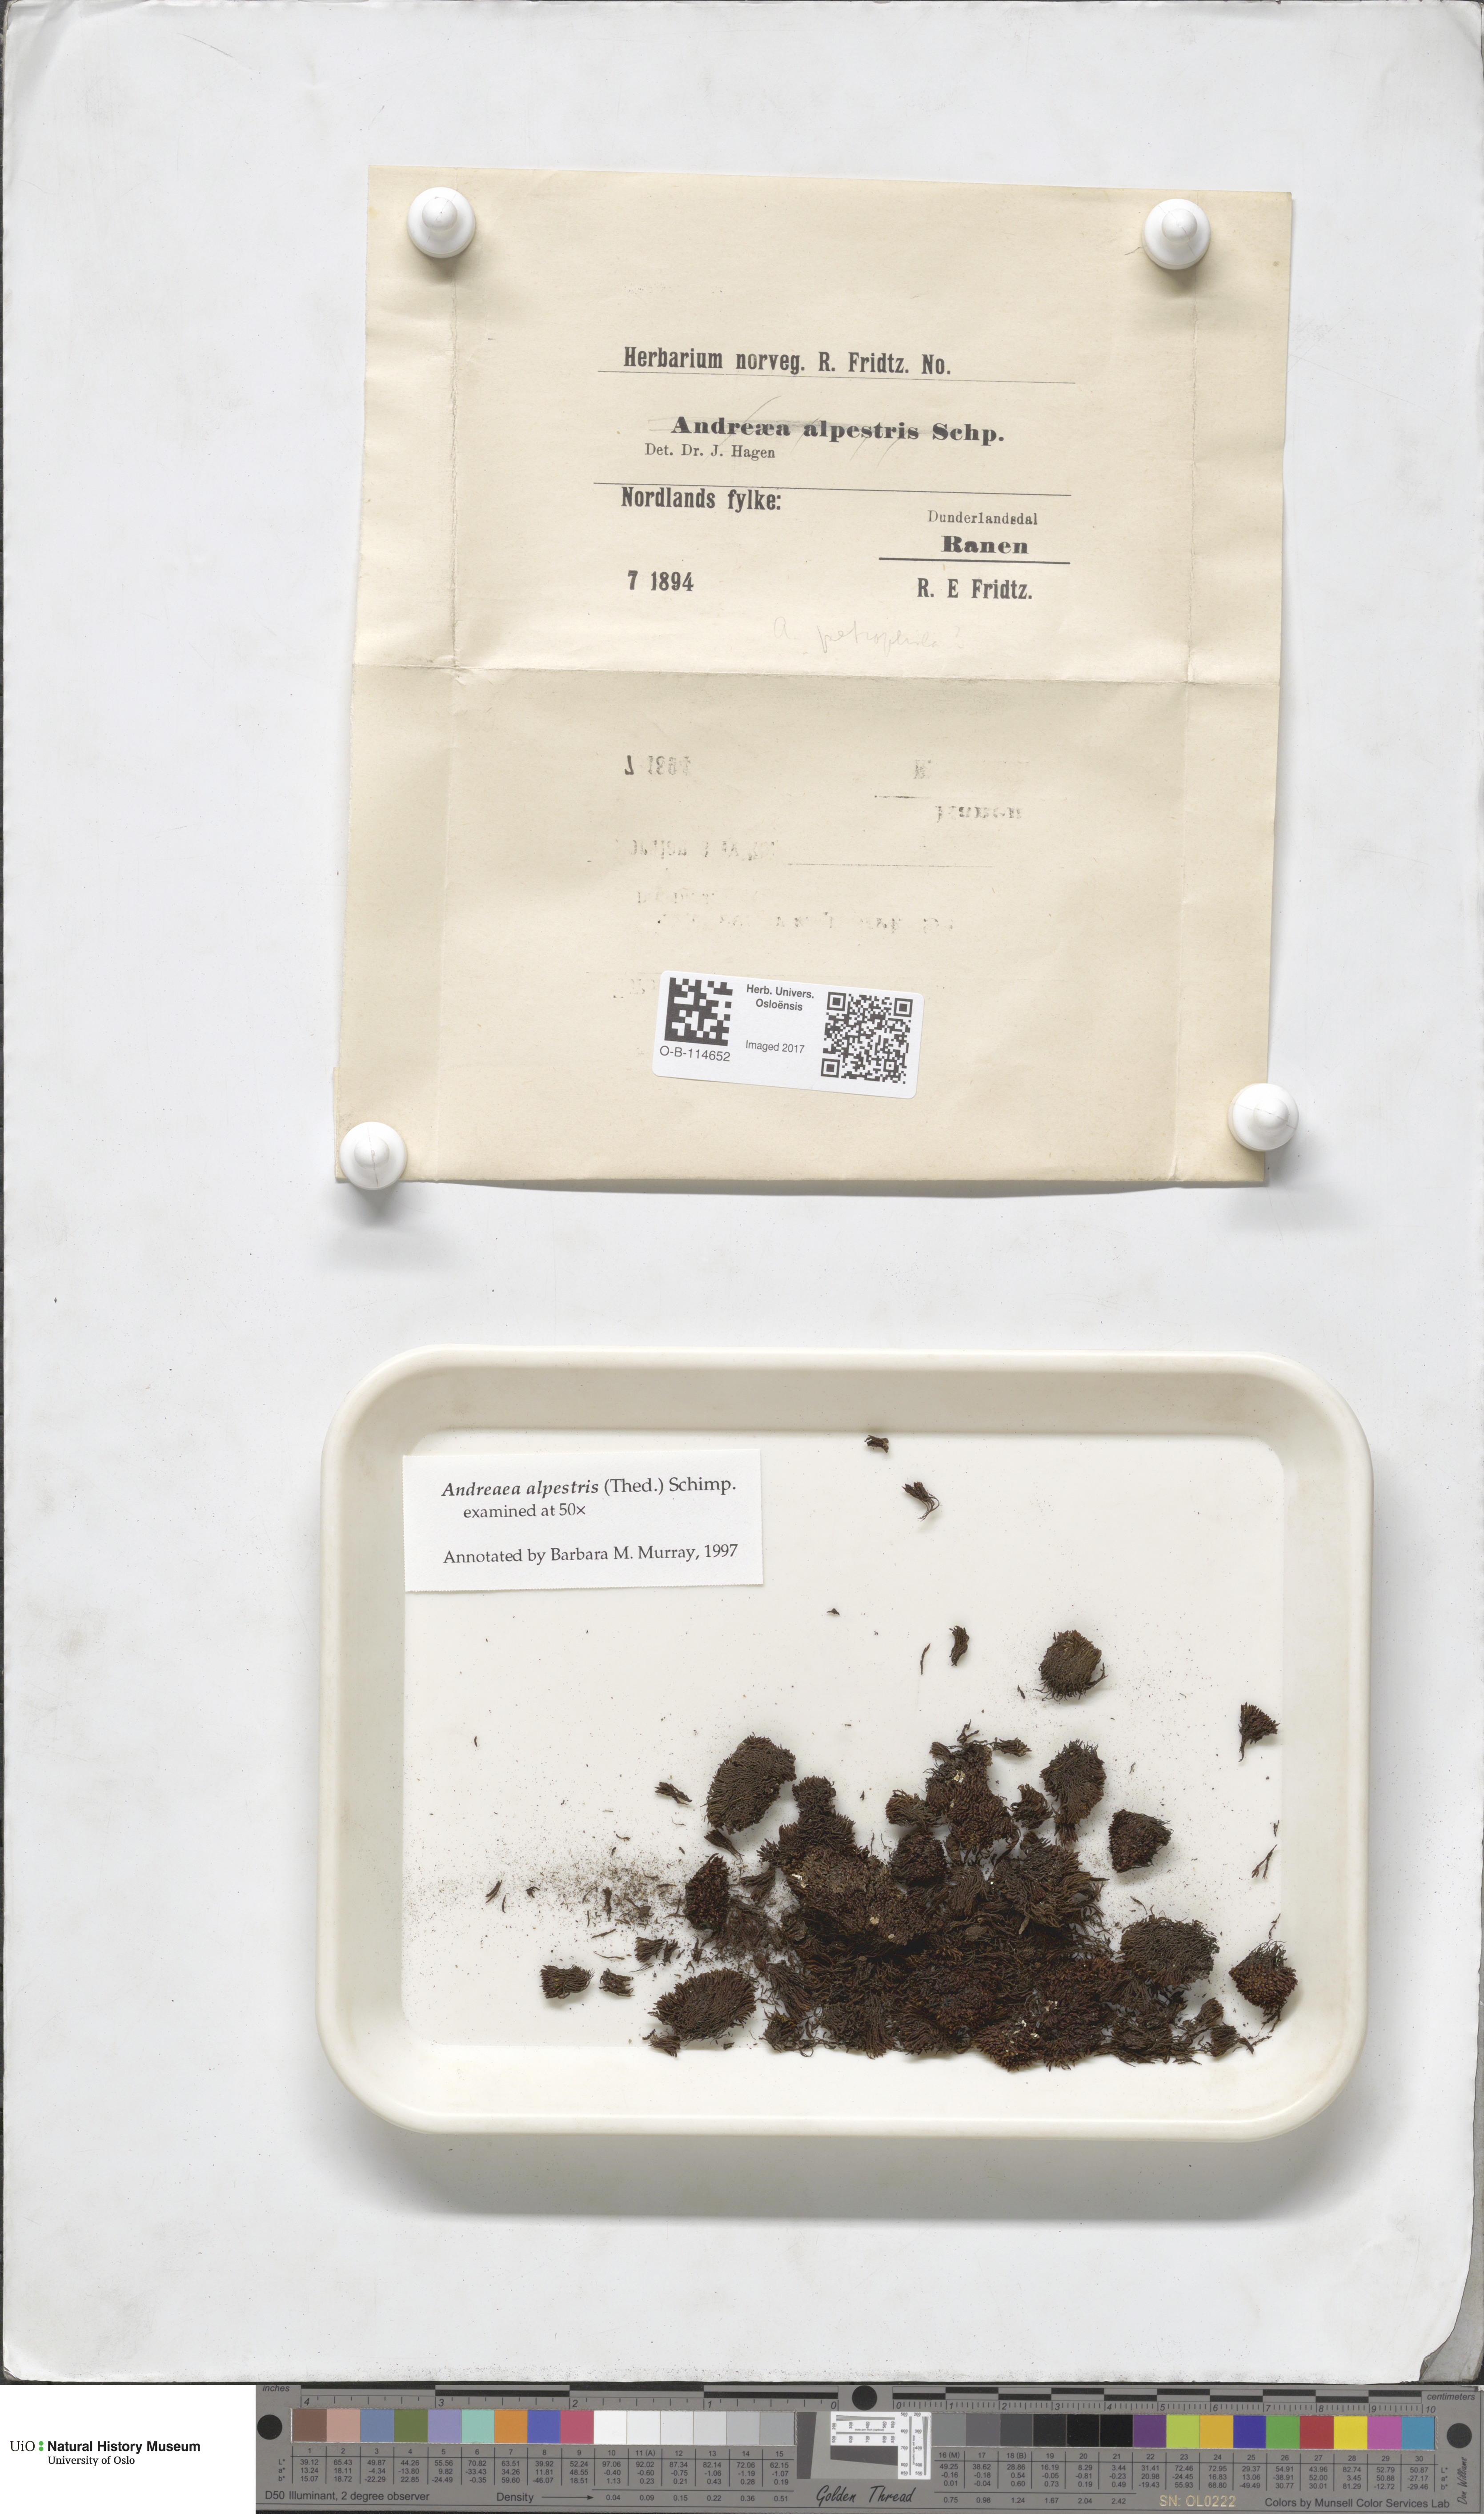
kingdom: Plantae
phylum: Bryophyta
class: Andreaeopsida
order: Andreaeales
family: Andreaeaceae
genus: Andreaea
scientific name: Andreaea alpestris
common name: Slender rock-moss
